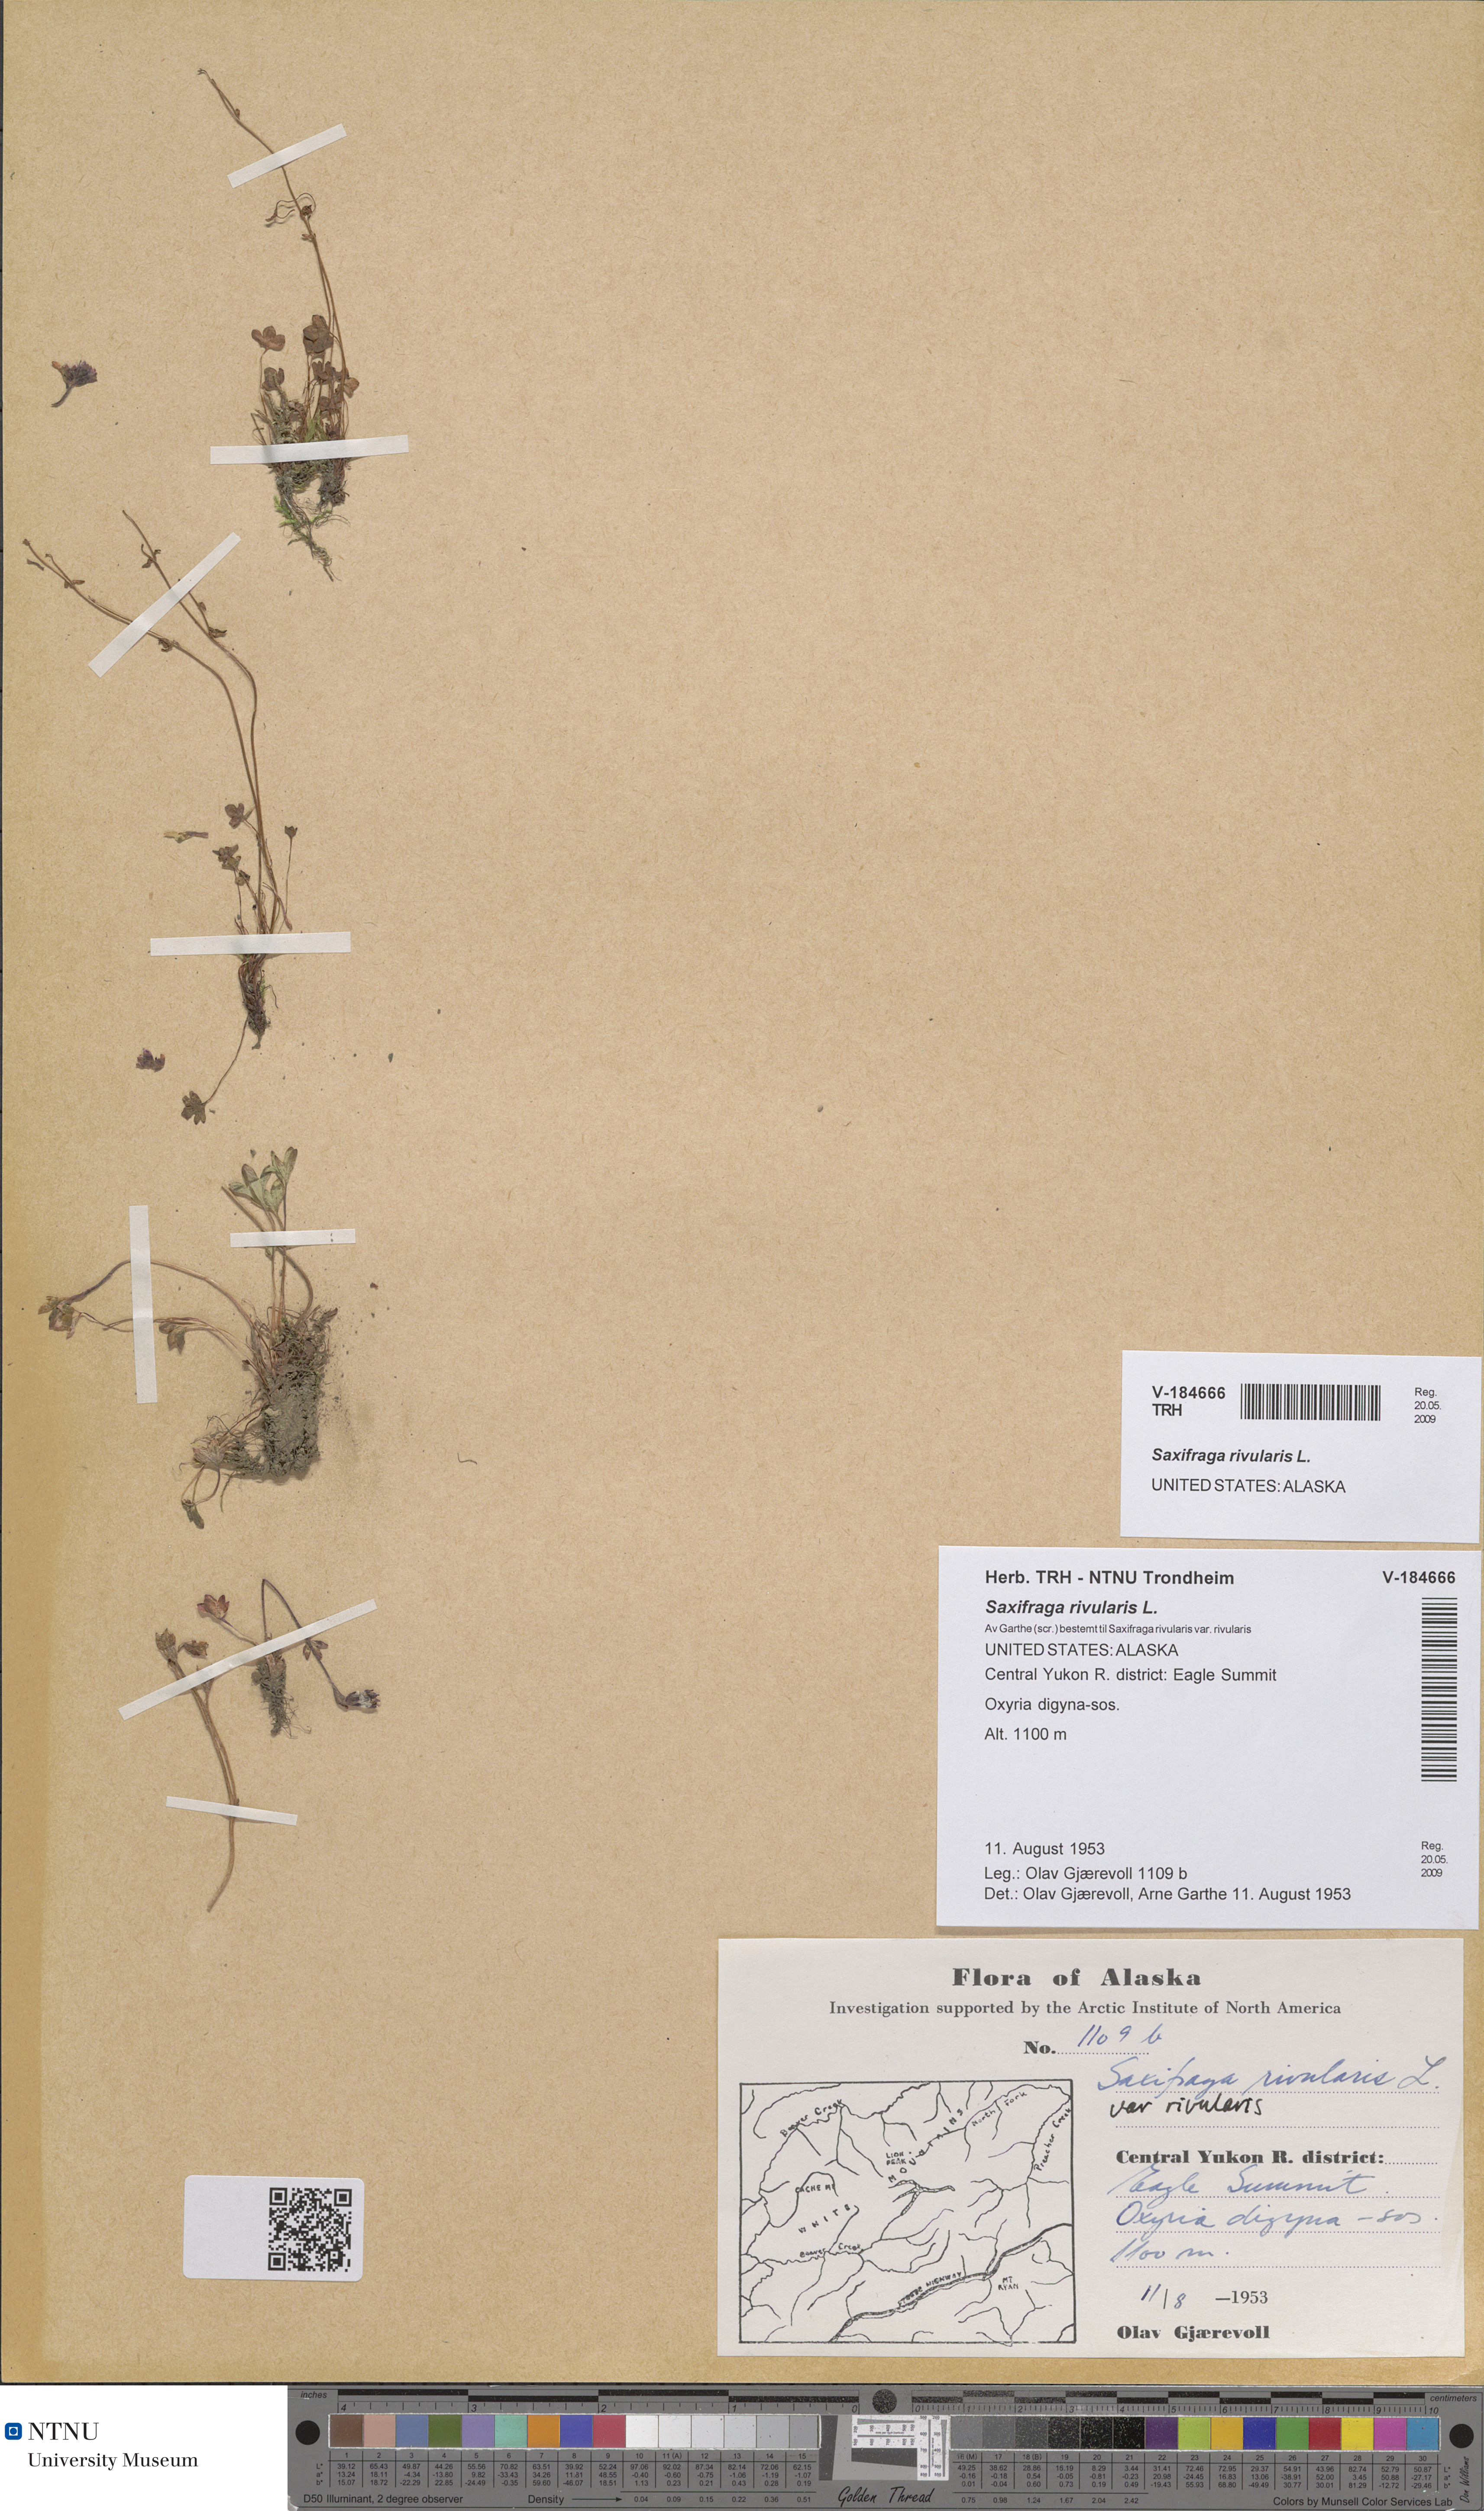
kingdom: Plantae
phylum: Tracheophyta
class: Magnoliopsida
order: Saxifragales
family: Saxifragaceae
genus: Saxifraga
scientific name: Saxifraga rivularis
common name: Highland saxifrage
